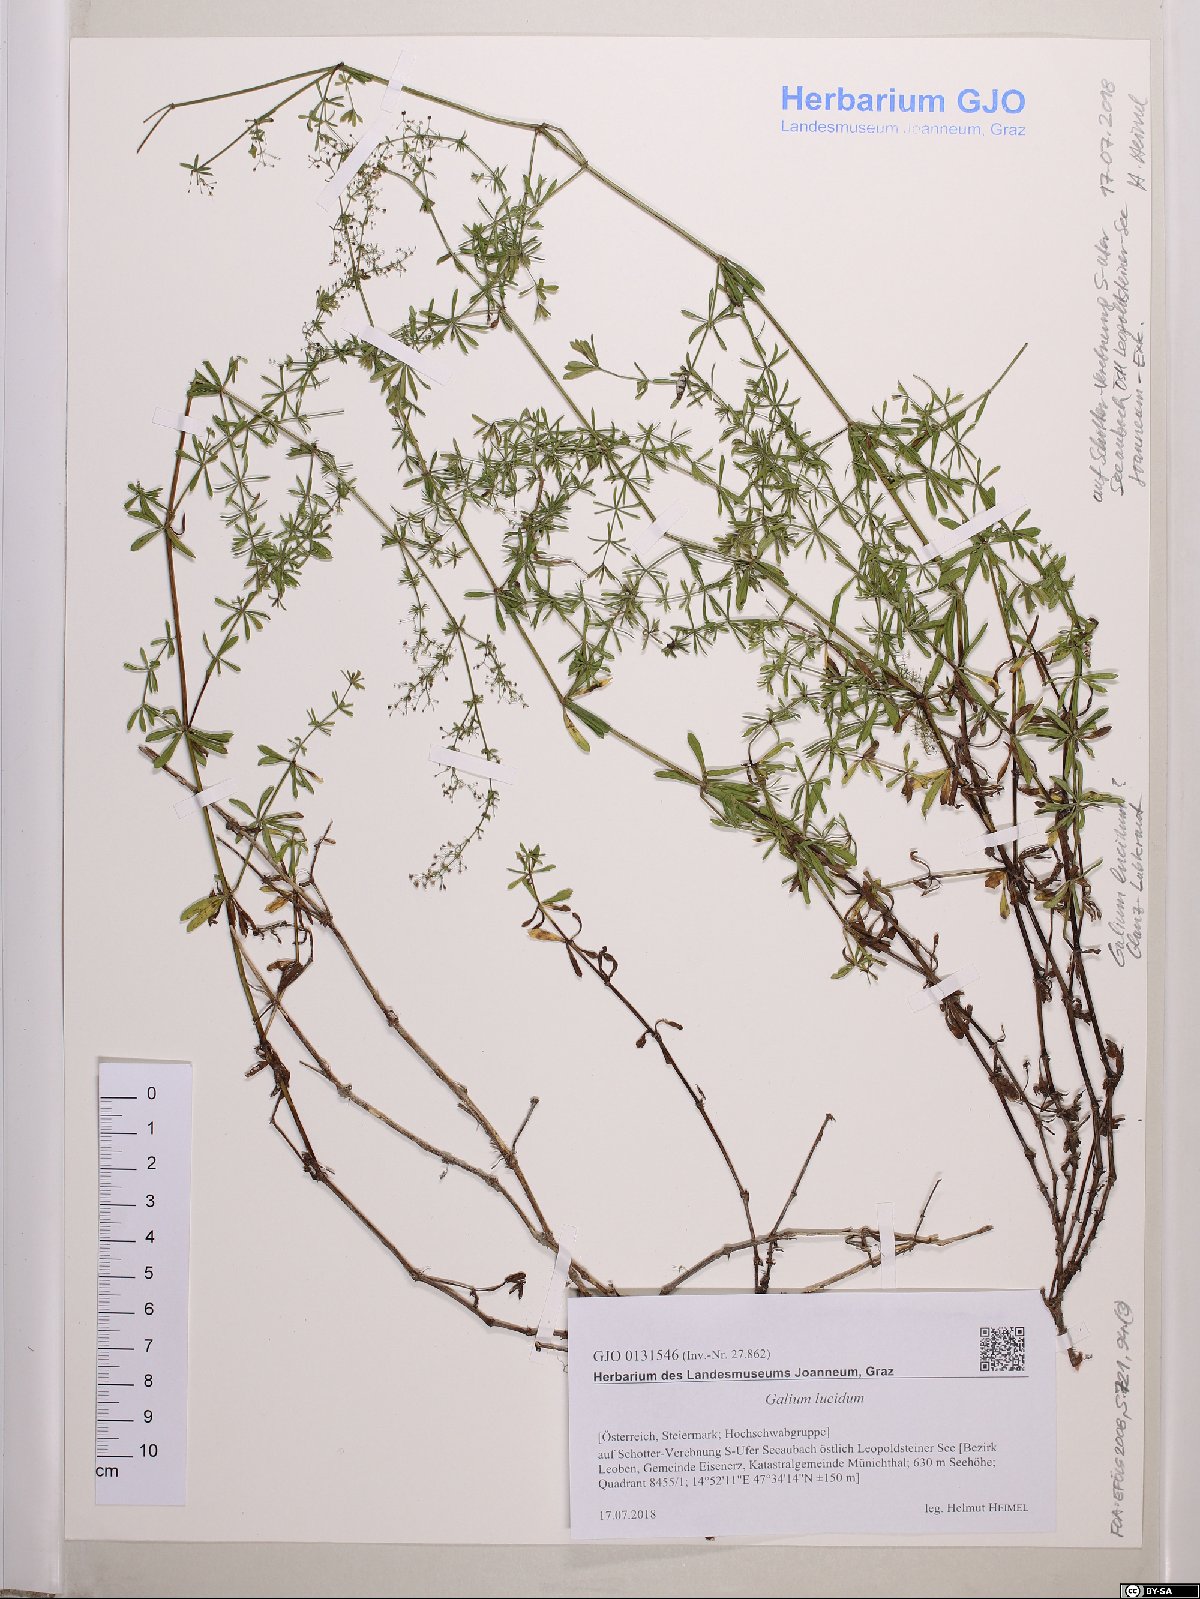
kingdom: Plantae
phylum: Tracheophyta
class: Magnoliopsida
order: Gentianales
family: Rubiaceae
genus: Galium
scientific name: Galium lucidum
